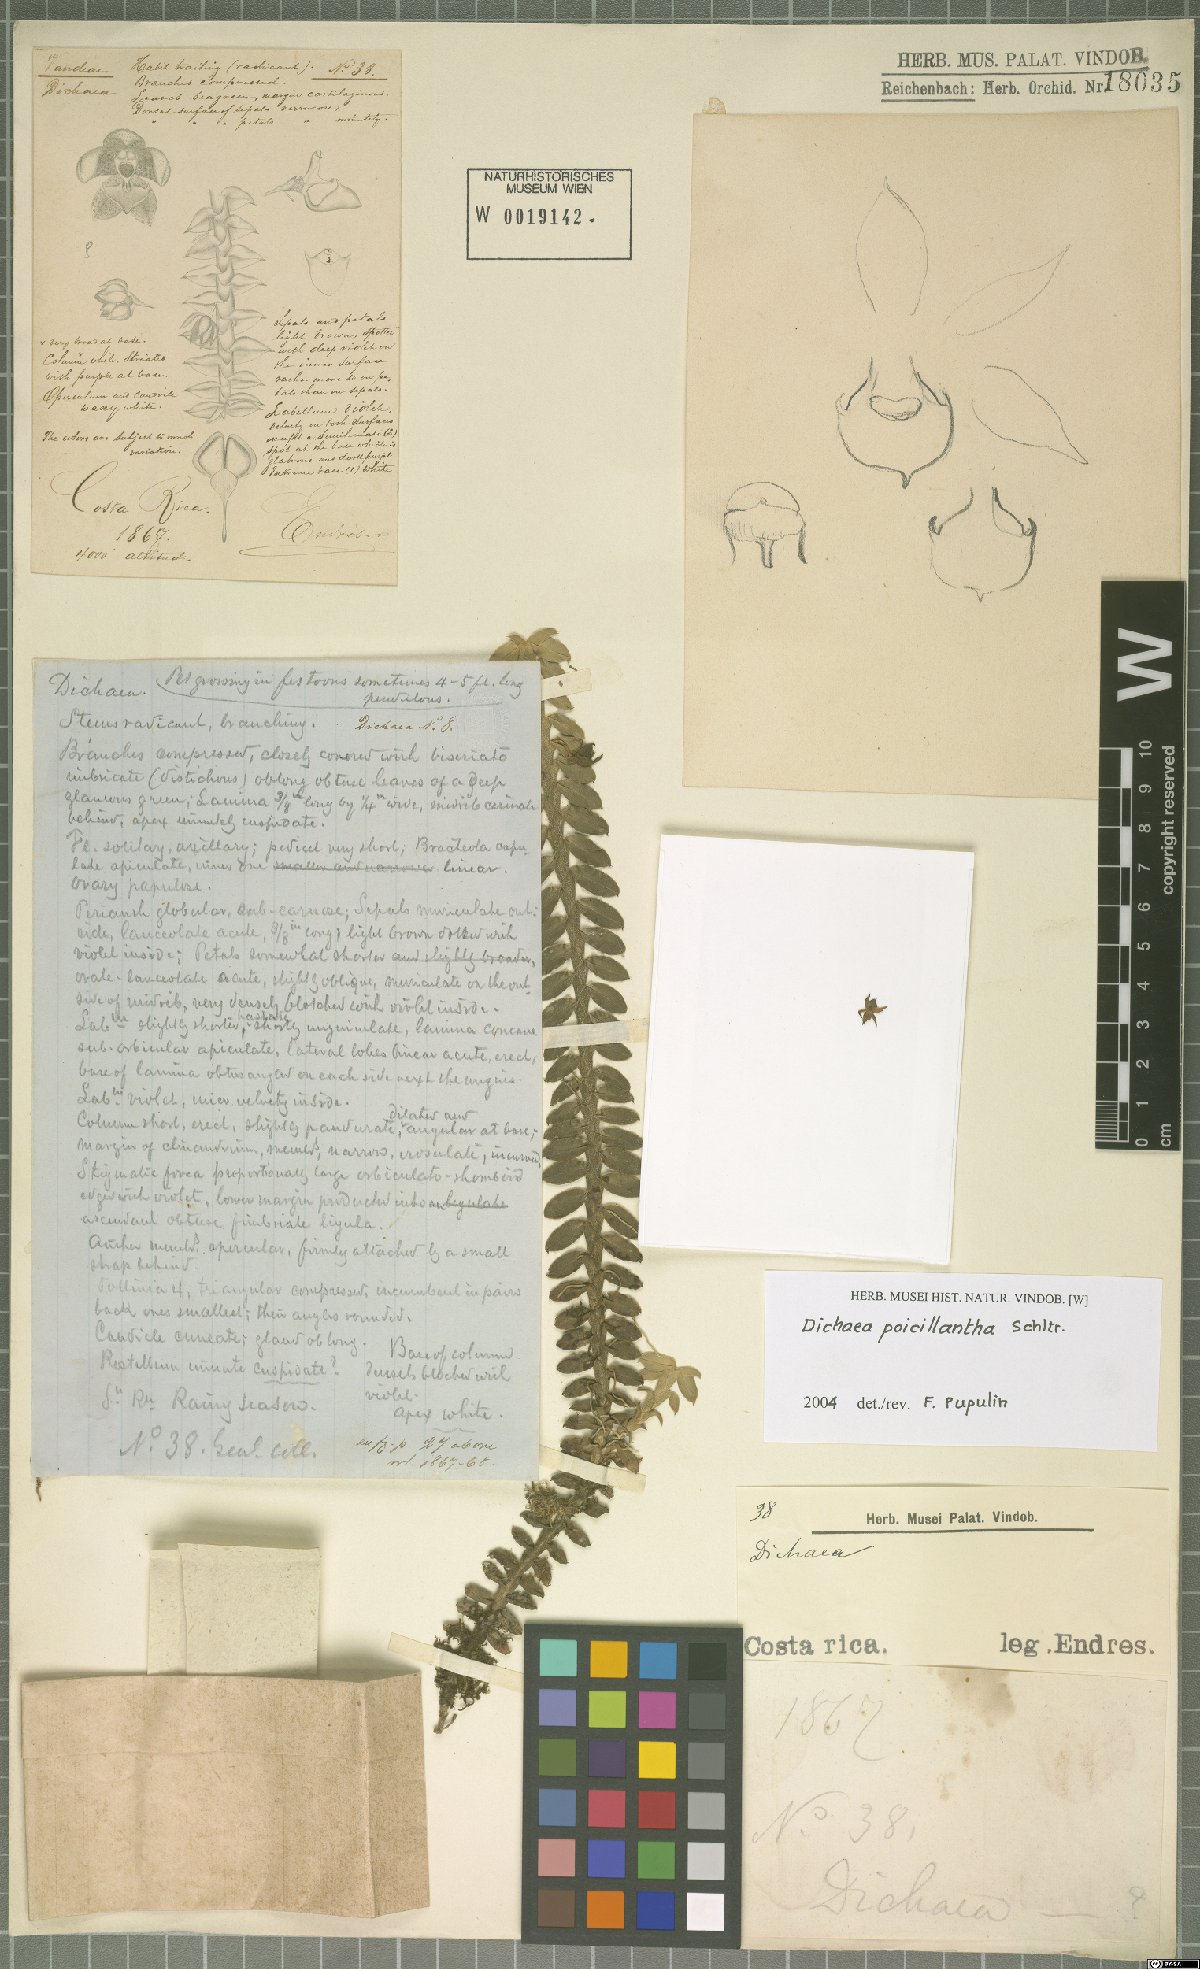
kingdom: Plantae
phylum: Tracheophyta
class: Liliopsida
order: Asparagales
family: Orchidaceae
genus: Dichaea
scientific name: Dichaea poicillantha
